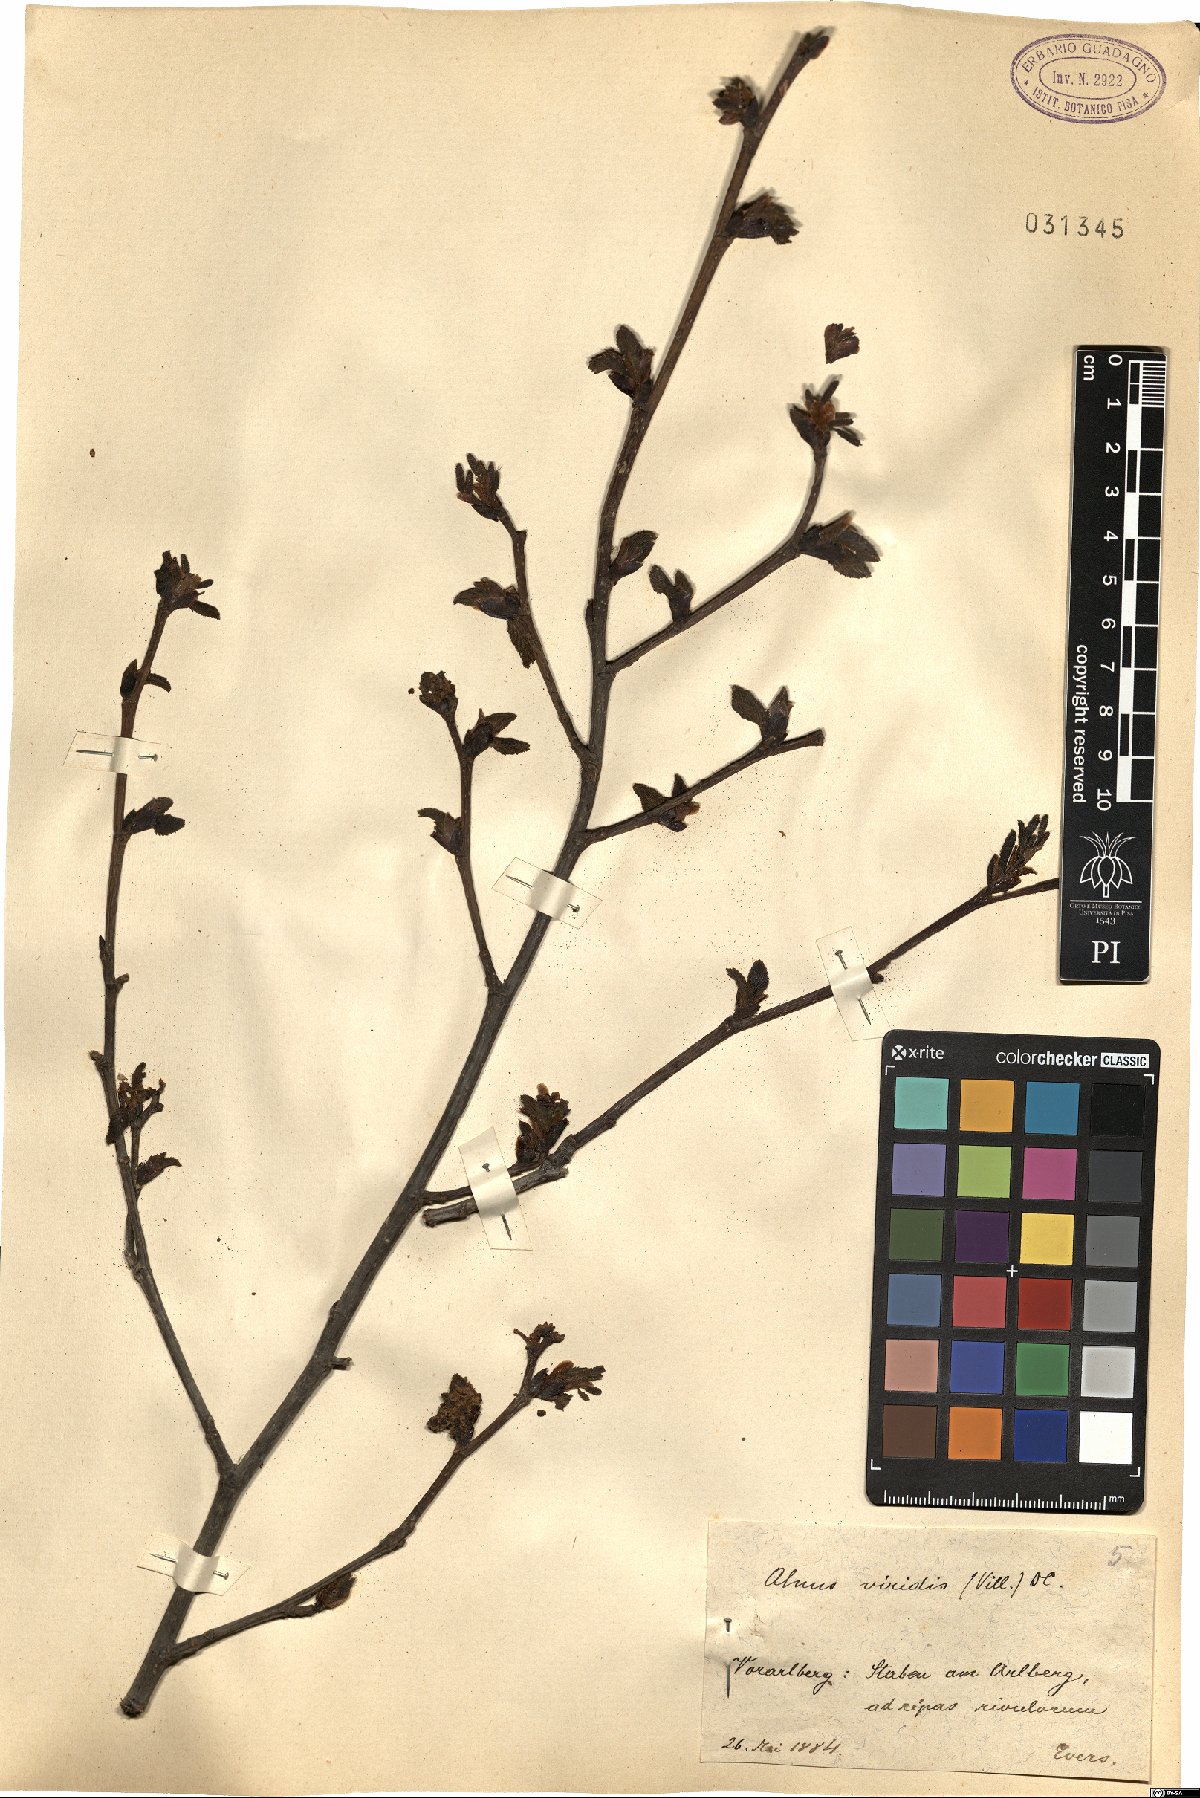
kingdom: Plantae
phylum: Tracheophyta
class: Magnoliopsida
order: Fagales
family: Betulaceae
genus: Alnus
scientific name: Alnus alnobetula
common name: Green alder
